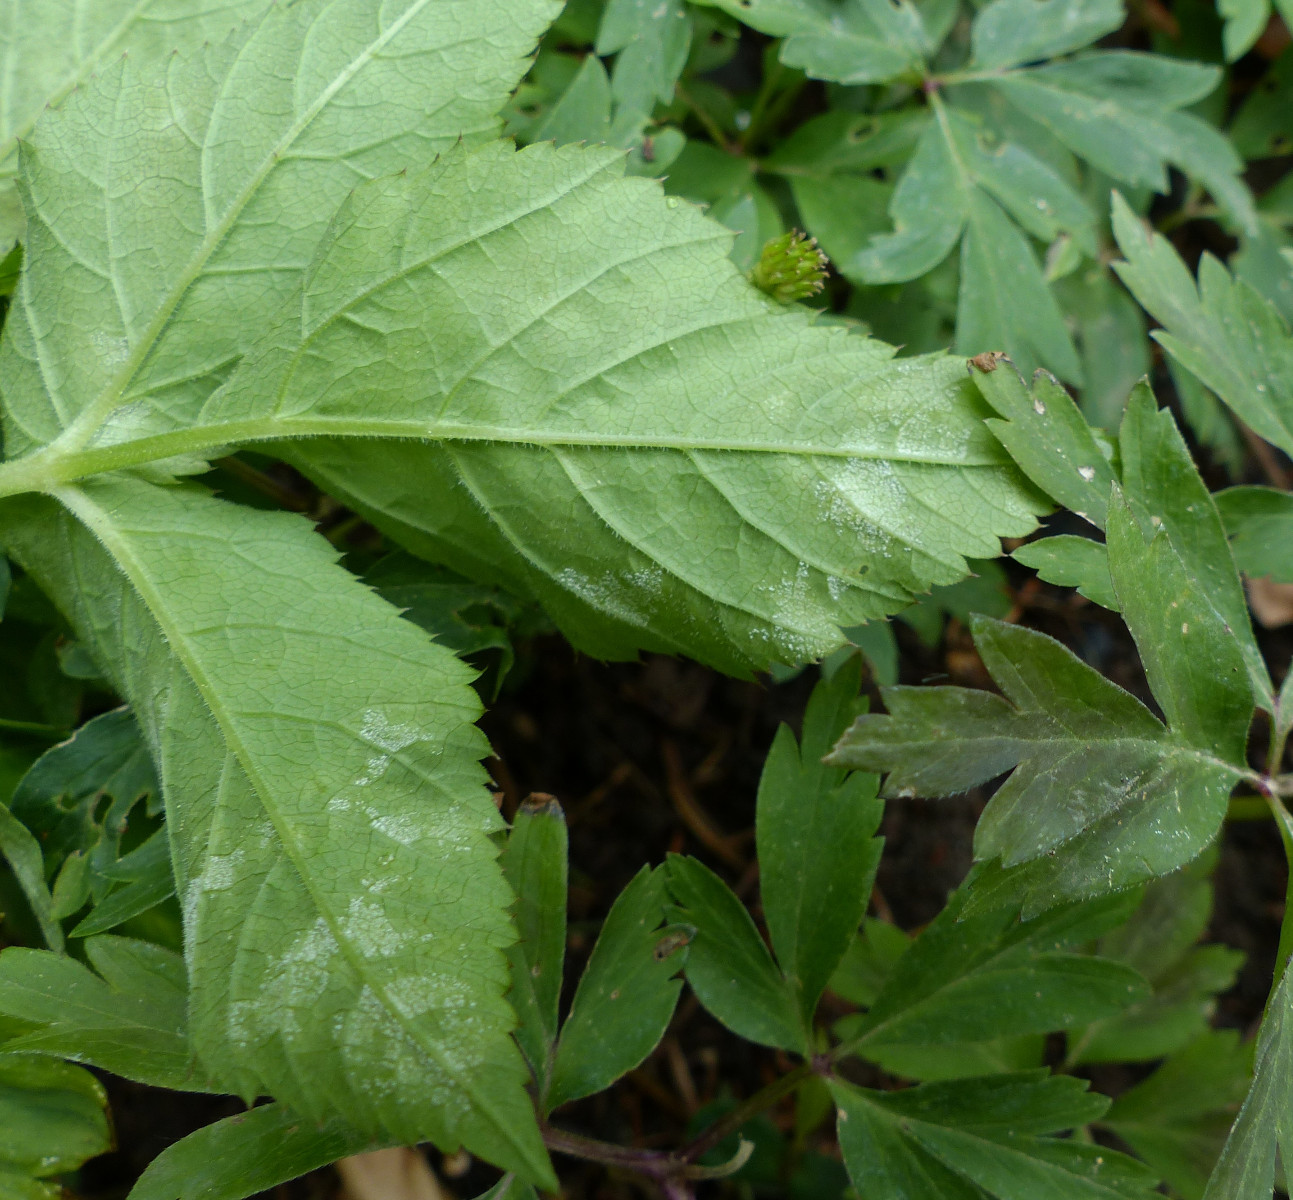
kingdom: Chromista
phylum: Oomycota
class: Peronosporea
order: Peronosporales
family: Peronosporaceae
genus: Peronospora
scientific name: Peronospora crustosa
